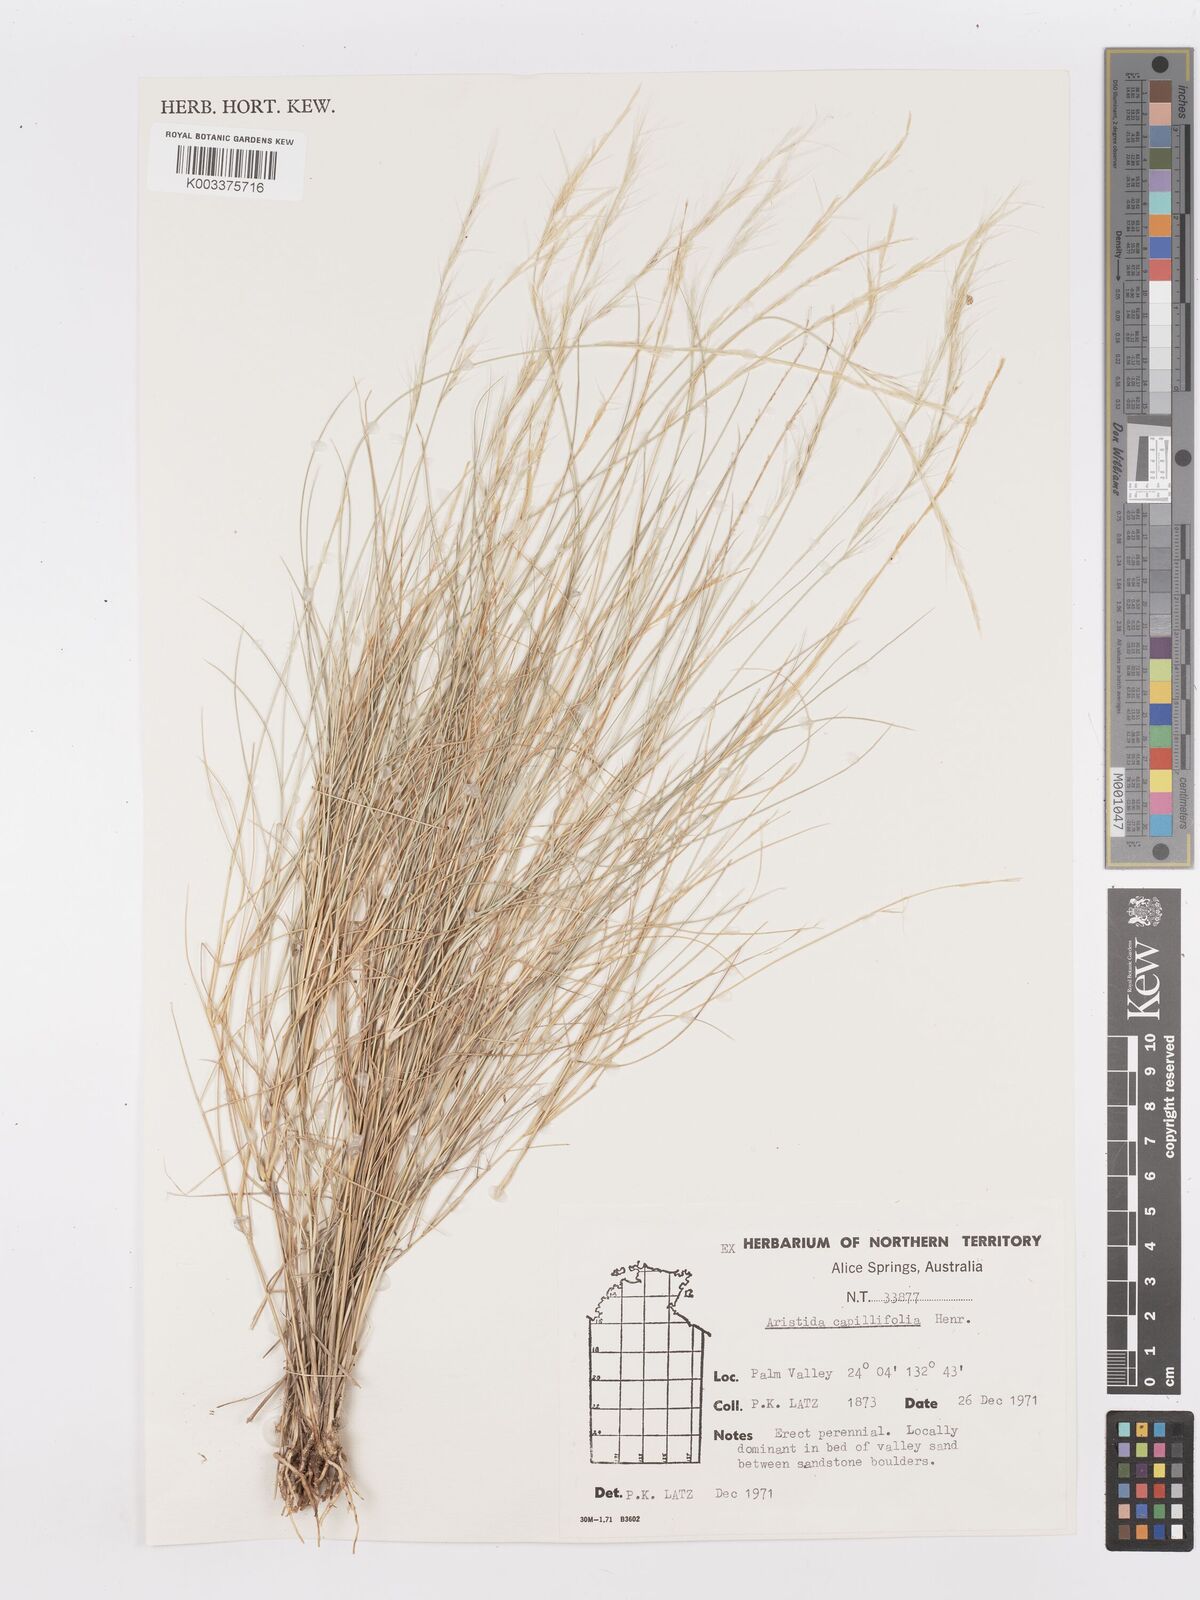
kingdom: Plantae
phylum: Tracheophyta
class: Liliopsida
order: Poales
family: Poaceae
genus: Aristida
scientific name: Aristida capillifolia
